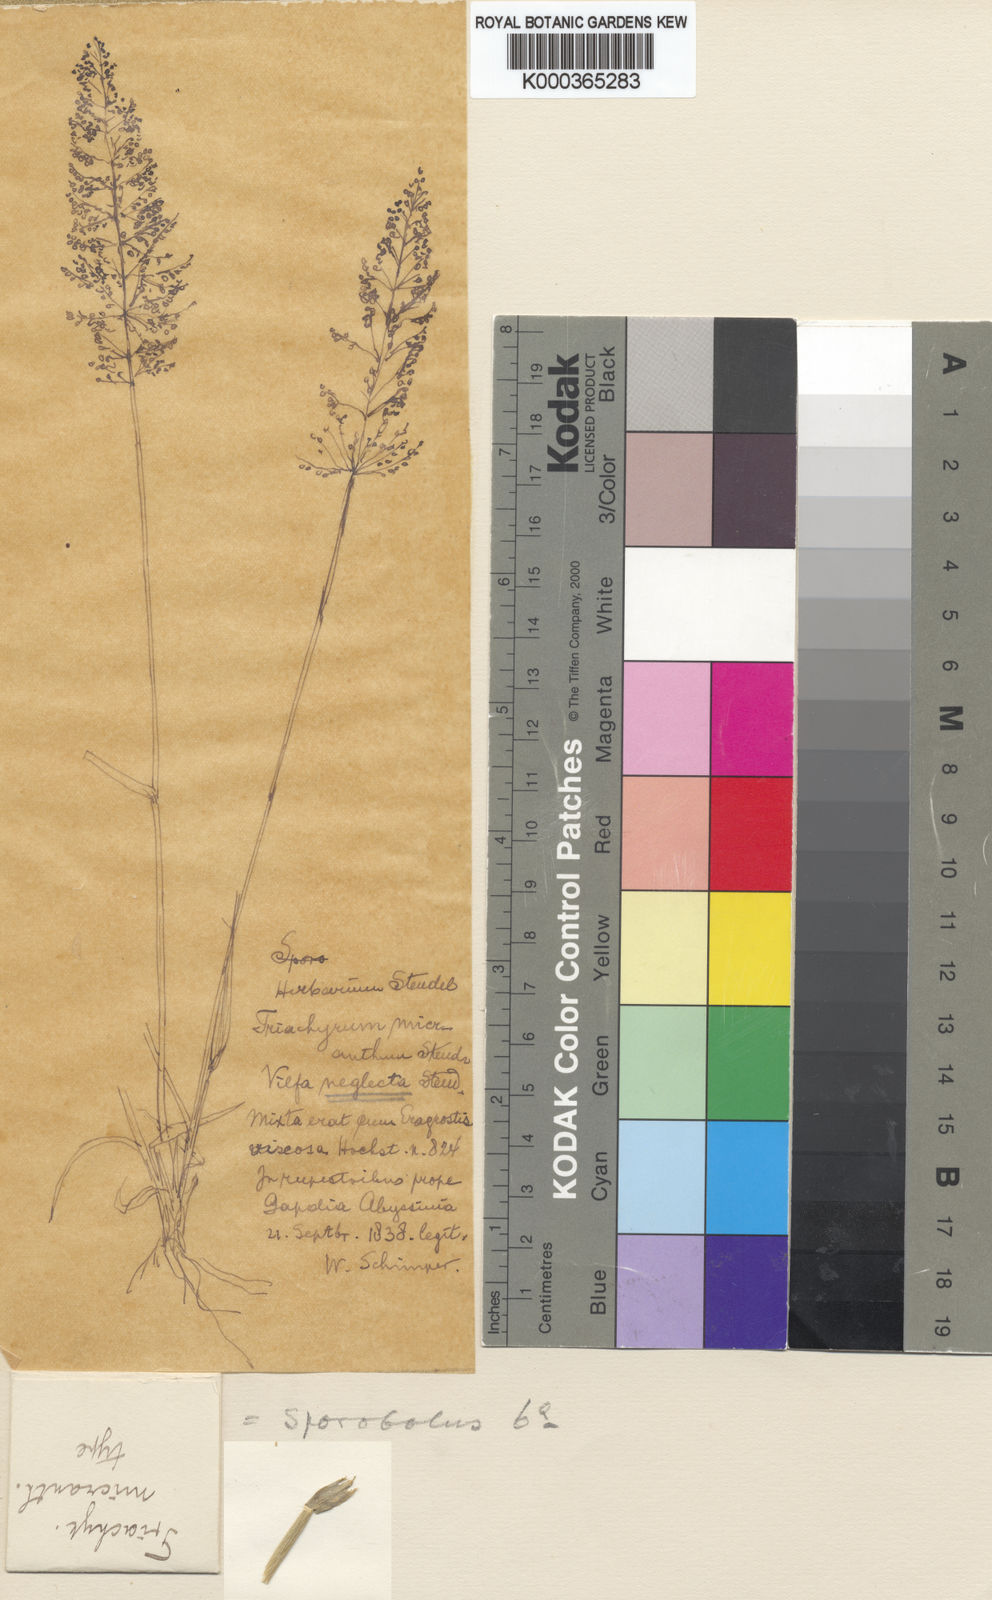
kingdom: Plantae
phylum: Tracheophyta
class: Liliopsida
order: Poales
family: Poaceae
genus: Sporobolus
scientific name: Sporobolus micranthus
